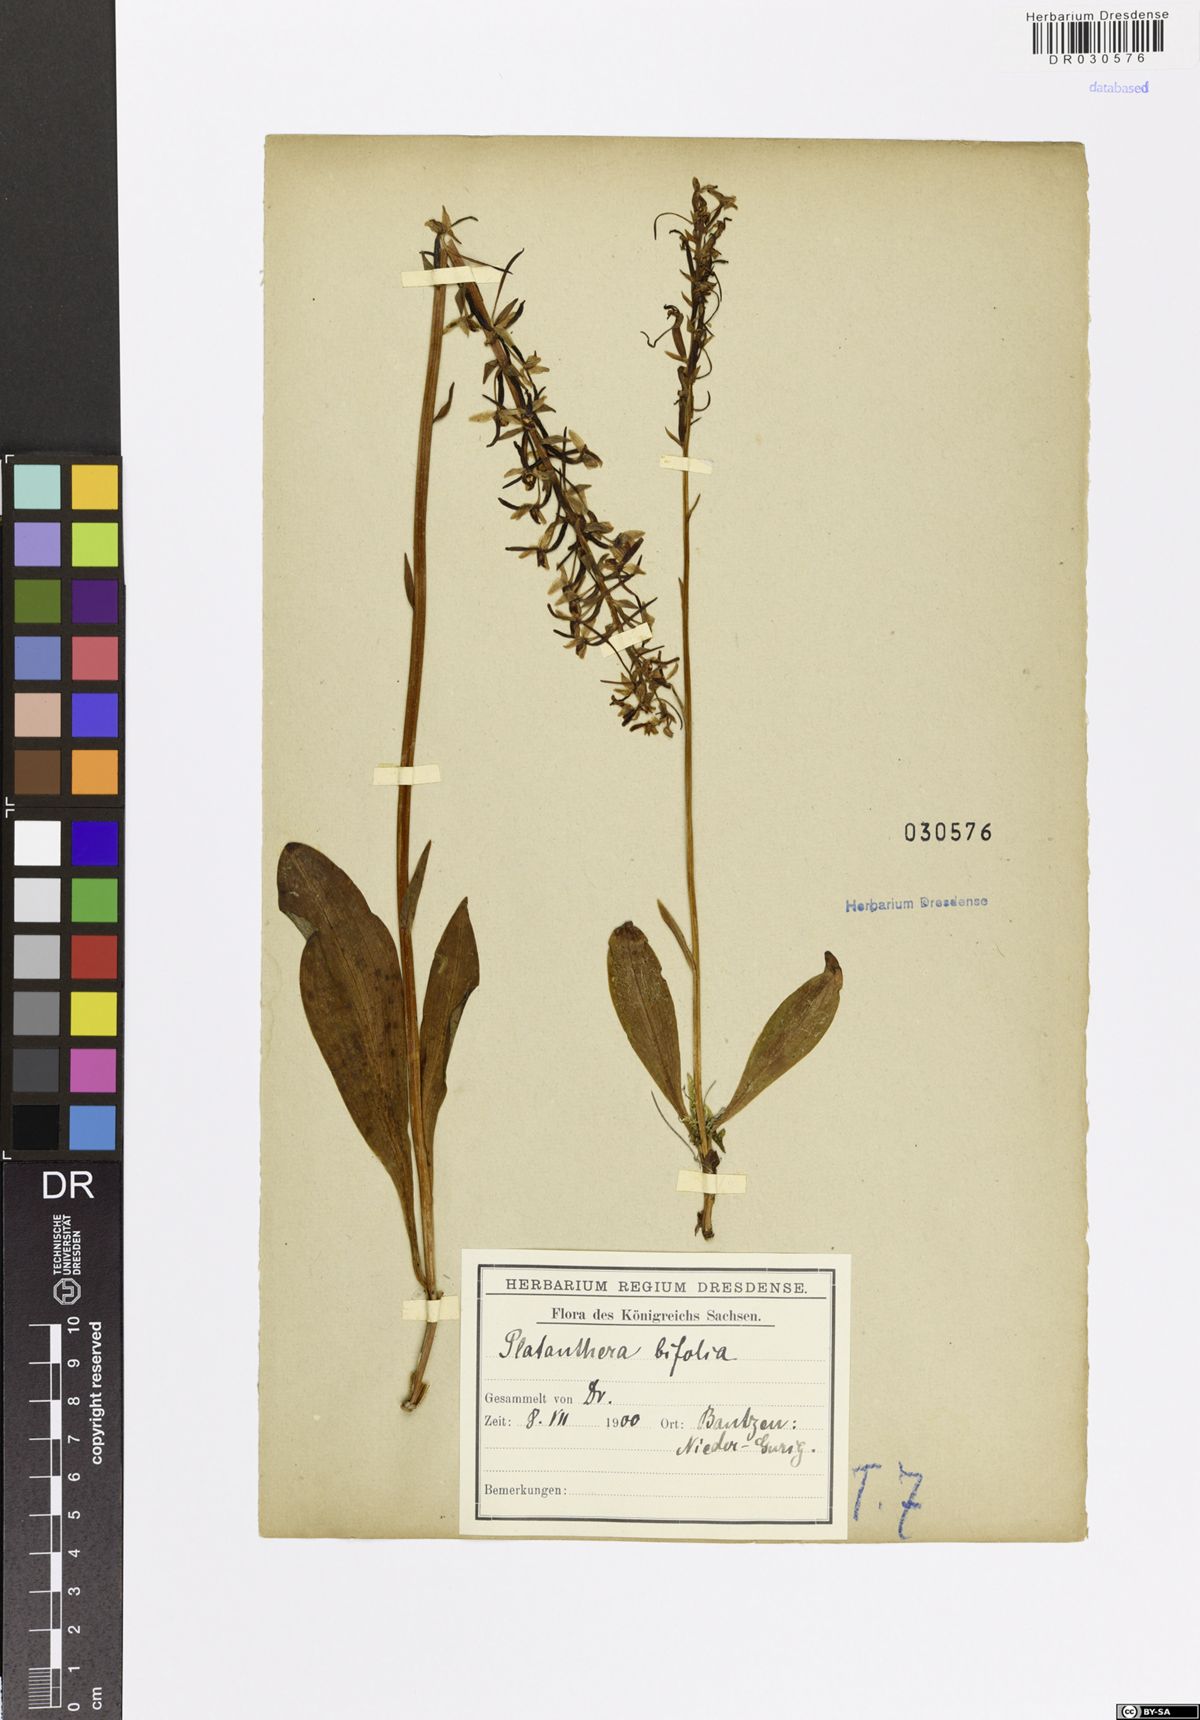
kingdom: Plantae
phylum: Tracheophyta
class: Liliopsida
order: Asparagales
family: Orchidaceae
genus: Platanthera
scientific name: Platanthera bifolia
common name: Lesser butterfly-orchid
